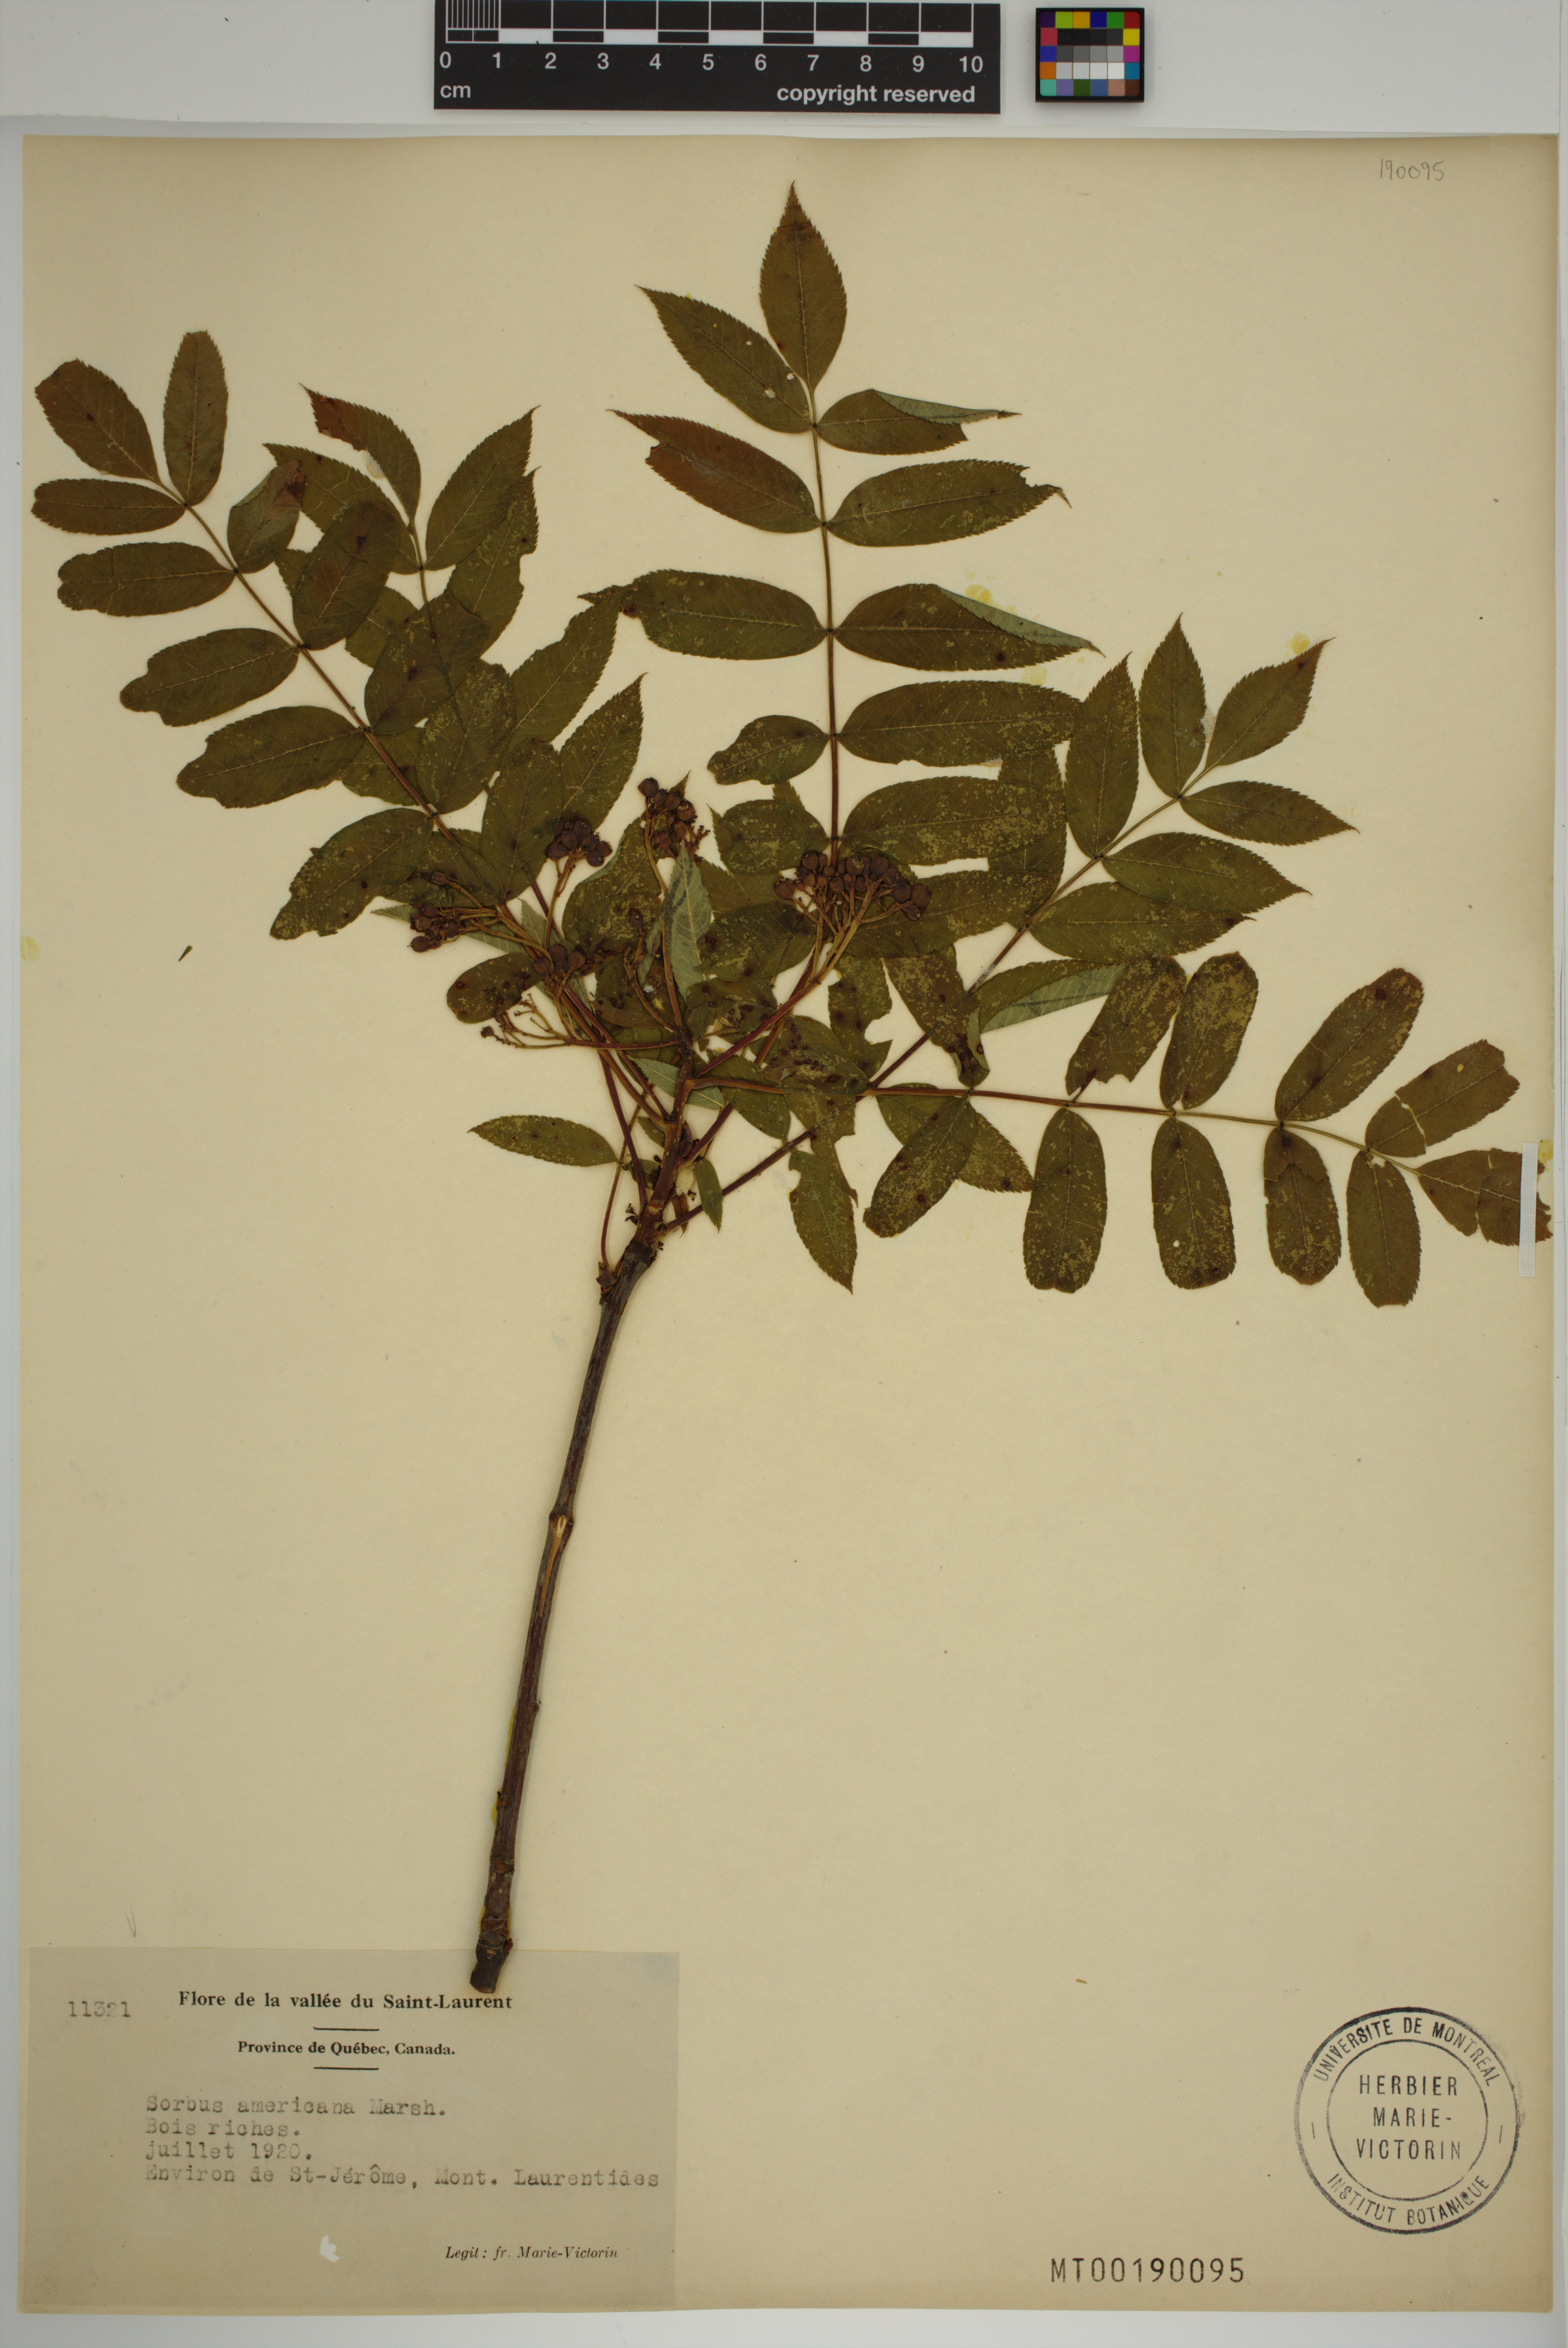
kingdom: Plantae
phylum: Tracheophyta
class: Magnoliopsida
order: Rosales
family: Rosaceae
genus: Sorbus
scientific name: Sorbus americana
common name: American mountain-ash
